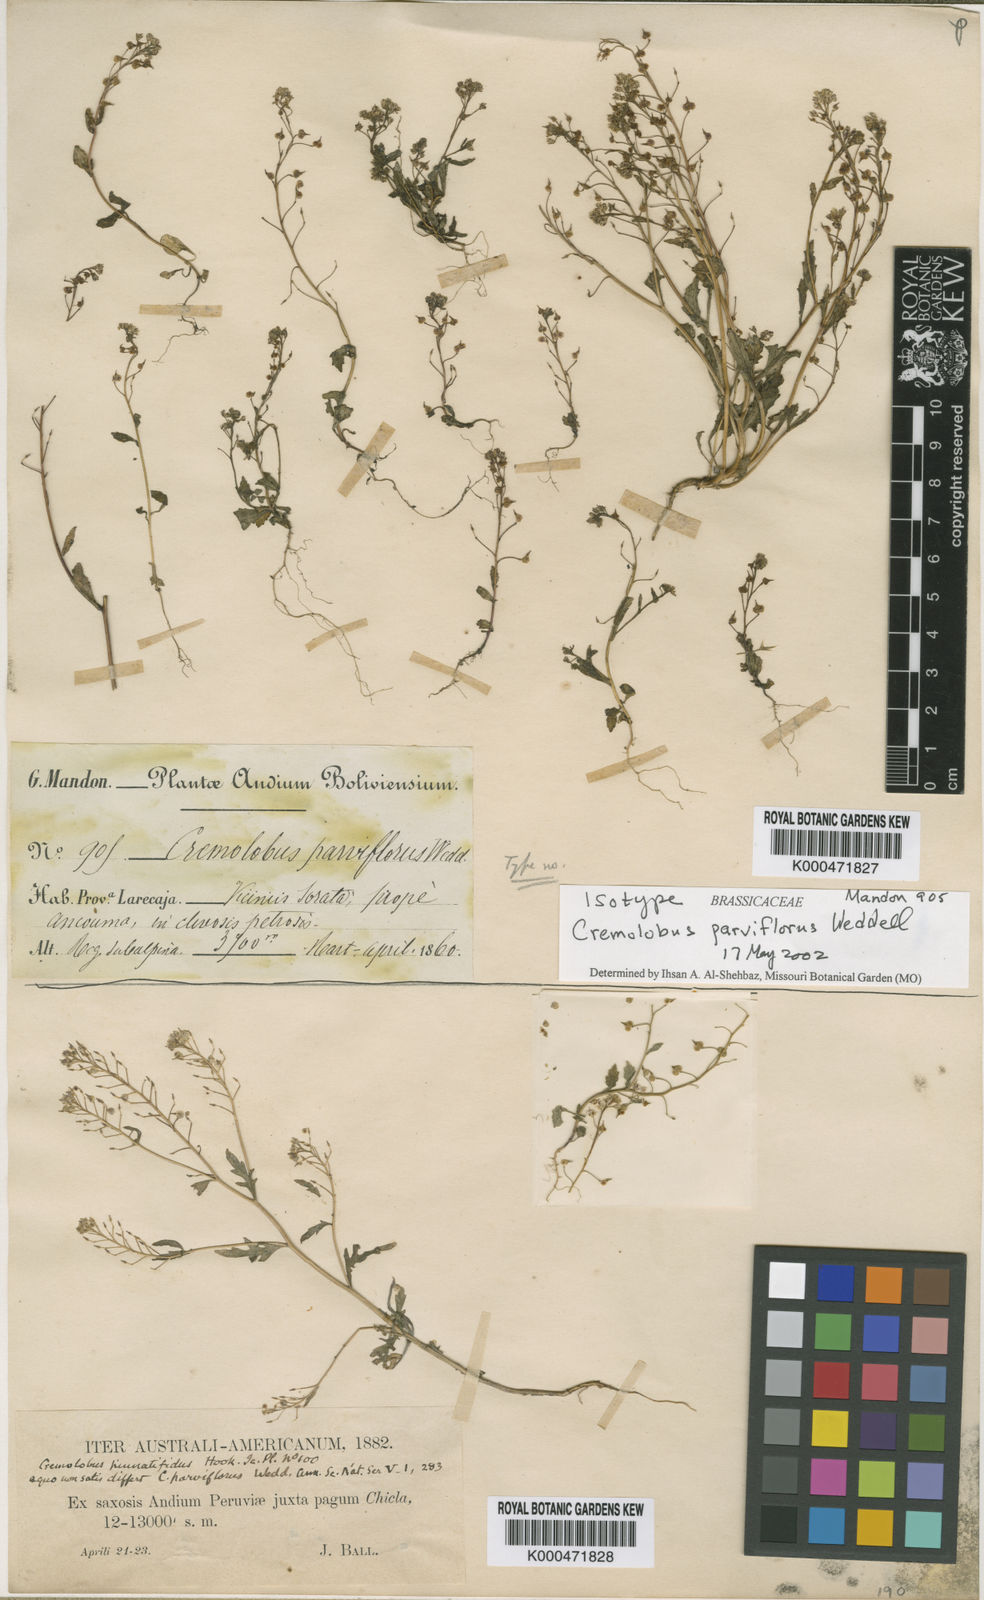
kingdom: Plantae
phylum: Tracheophyta
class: Magnoliopsida
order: Brassicales
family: Brassicaceae
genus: Cremolobus
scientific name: Cremolobus chilensis
